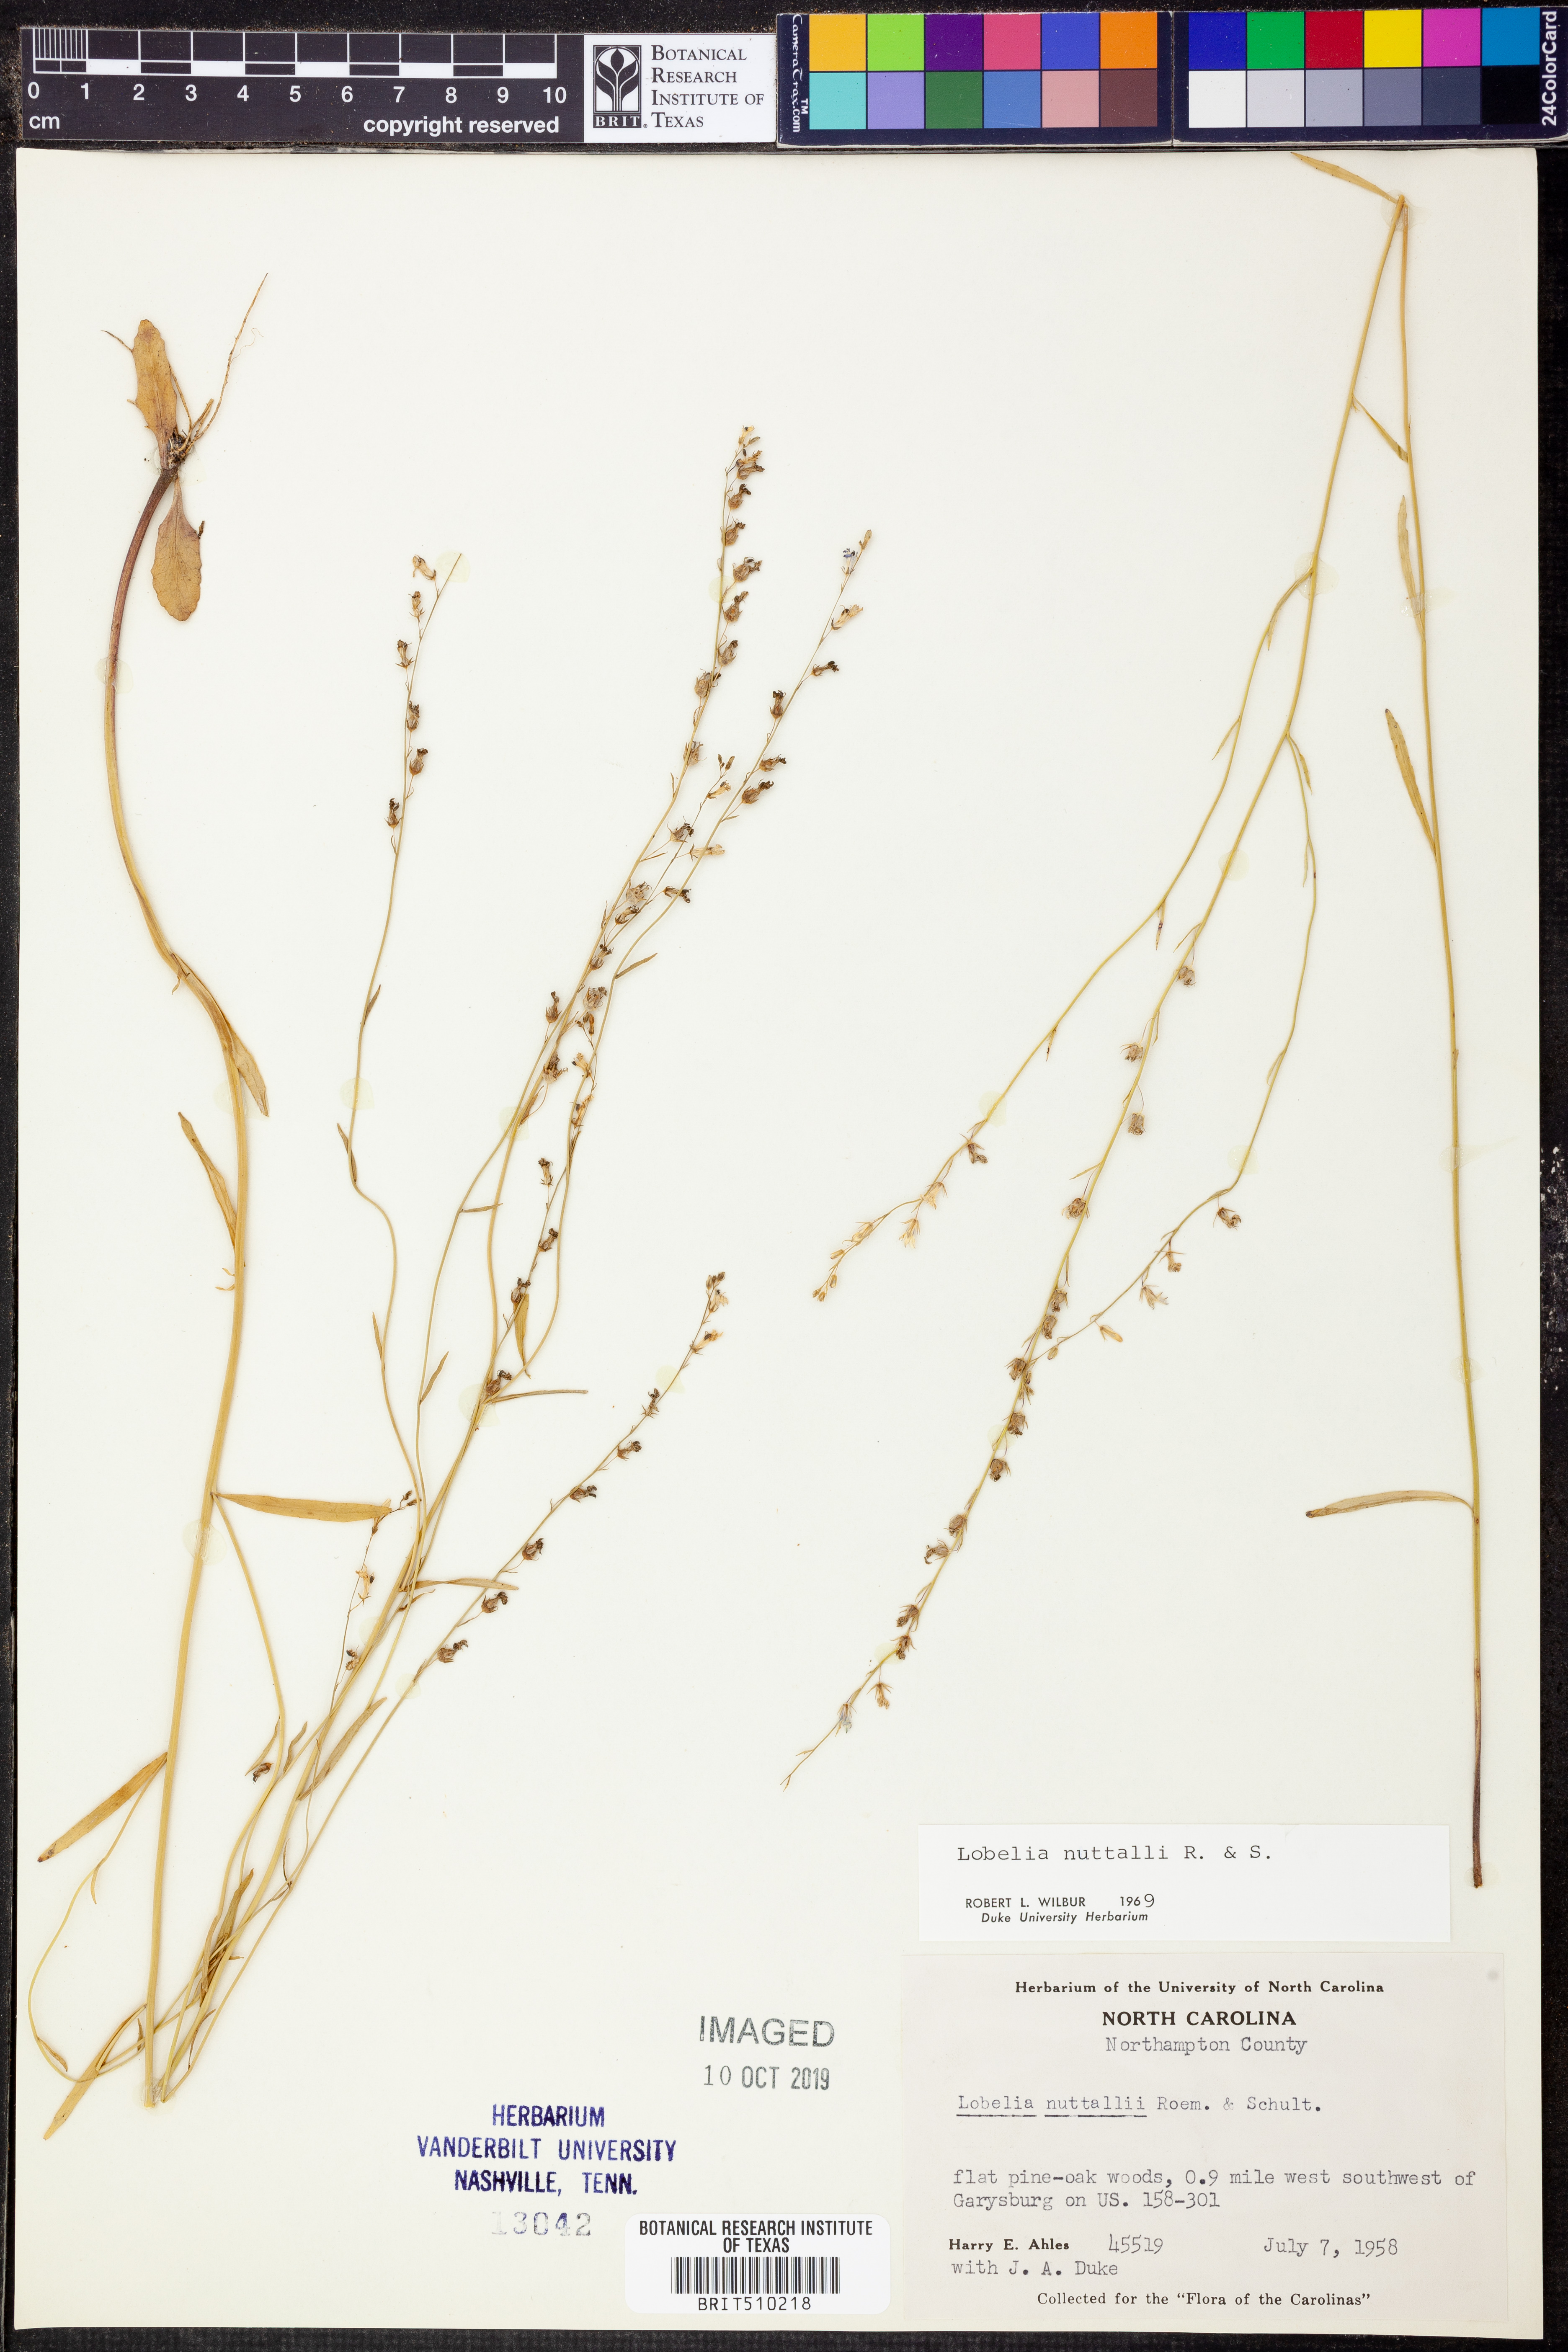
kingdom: Plantae
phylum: Tracheophyta
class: Magnoliopsida
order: Asterales
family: Campanulaceae
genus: Lobelia
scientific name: Lobelia nuttallii
